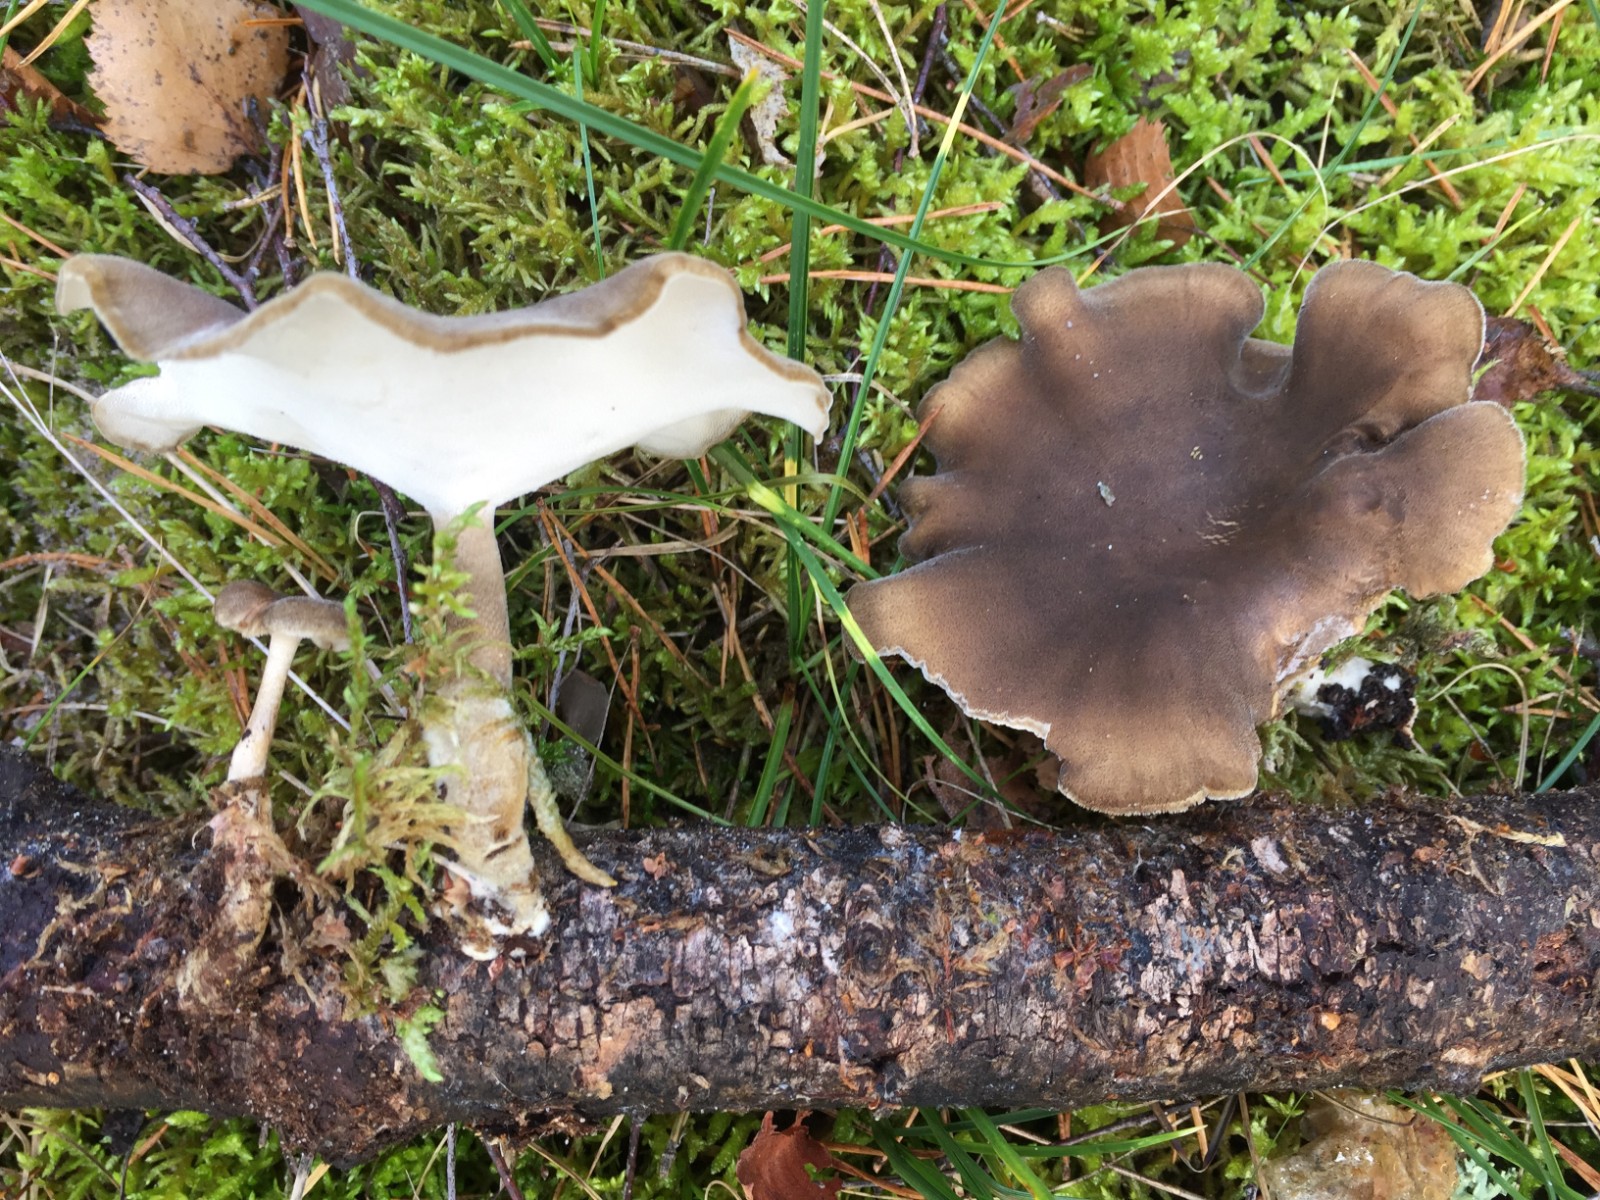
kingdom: Fungi
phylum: Basidiomycota
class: Agaricomycetes
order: Polyporales
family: Polyporaceae
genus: Lentinus
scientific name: Lentinus brumalis
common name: vinter-stilkporesvamp
